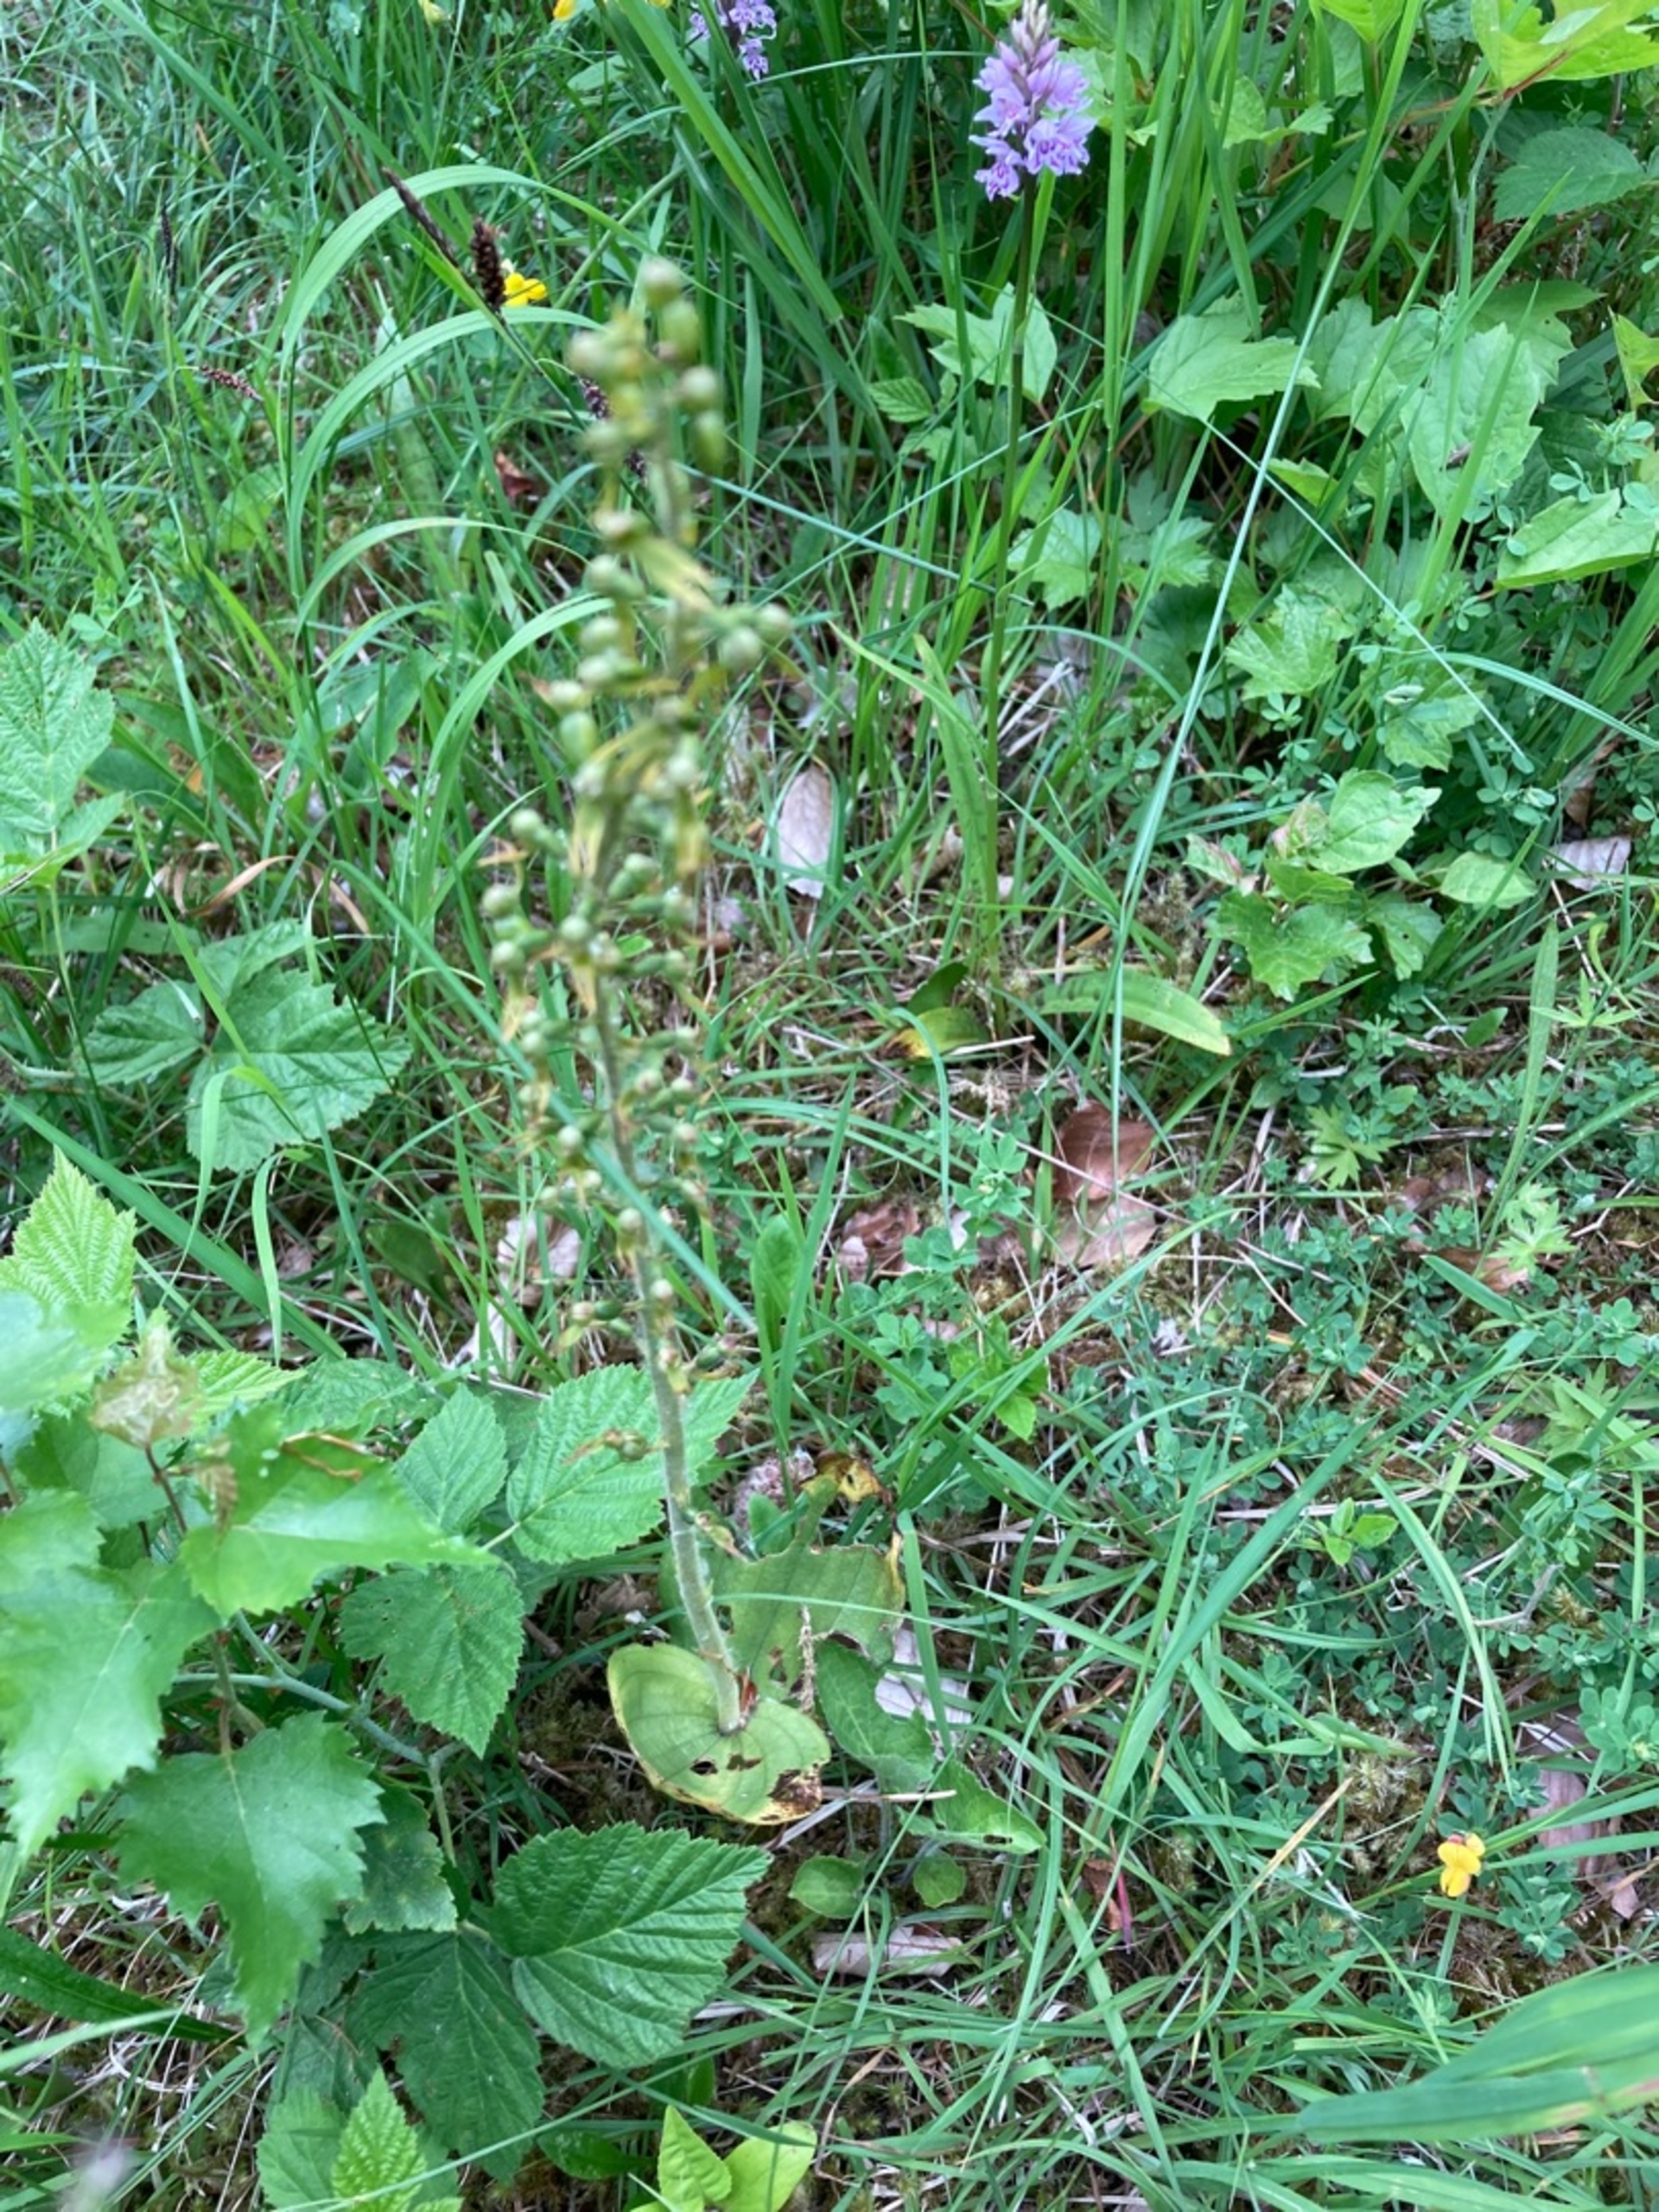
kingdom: Plantae
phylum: Tracheophyta
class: Liliopsida
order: Asparagales
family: Orchidaceae
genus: Neottia
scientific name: Neottia ovata
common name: Ægbladet fliglæbe
